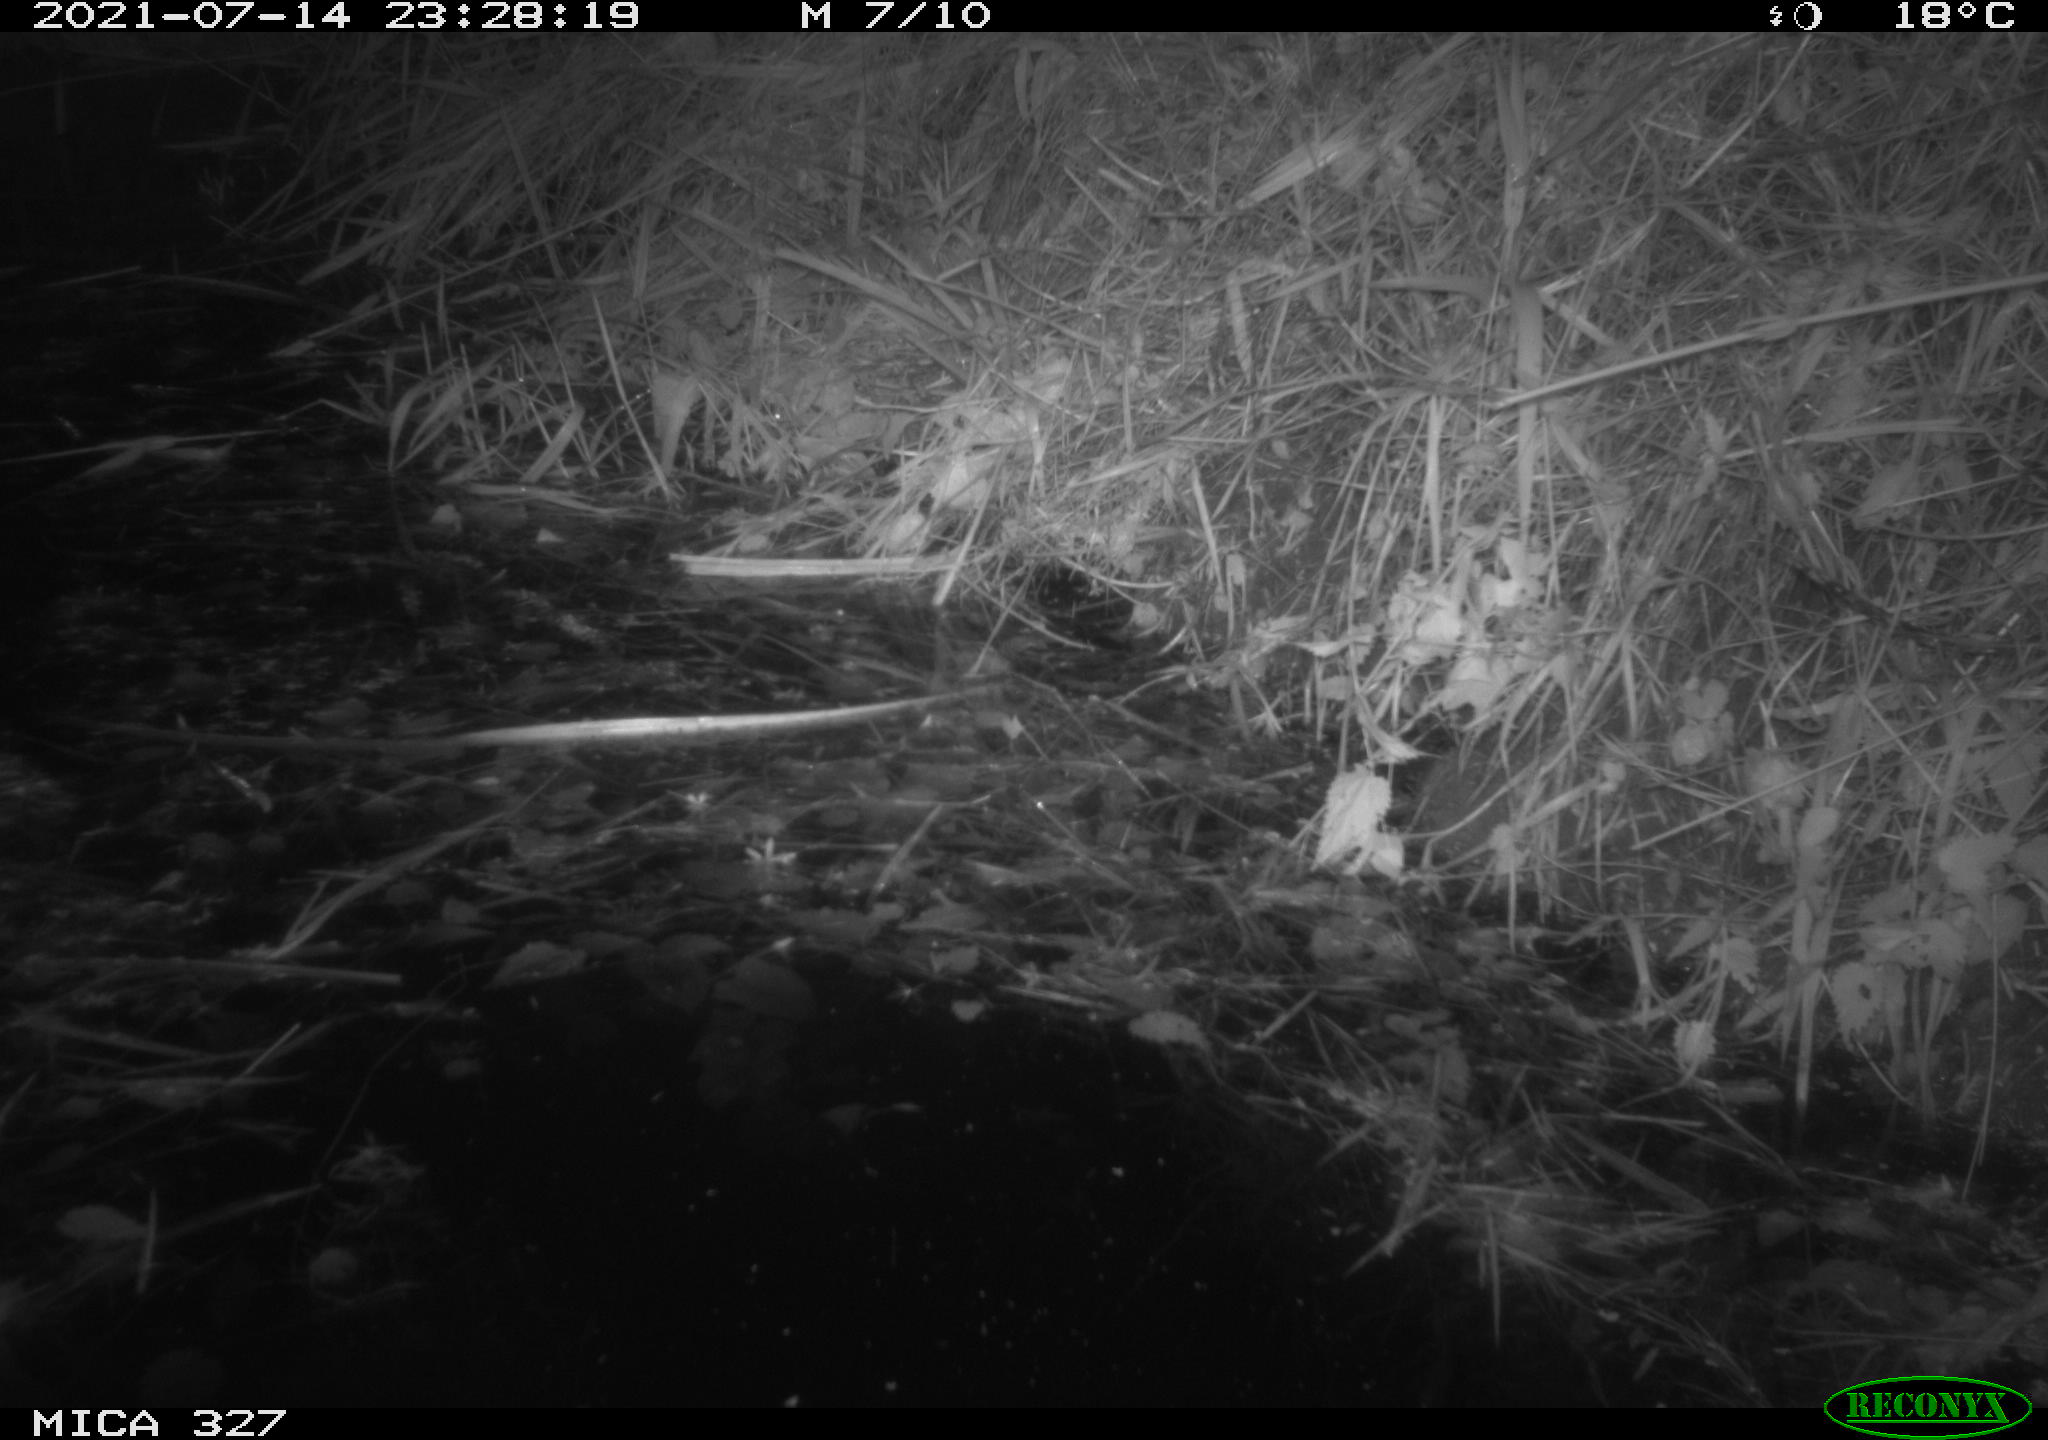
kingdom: Animalia
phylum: Chordata
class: Mammalia
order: Rodentia
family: Muridae
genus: Rattus
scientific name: Rattus norvegicus
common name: Brown rat
